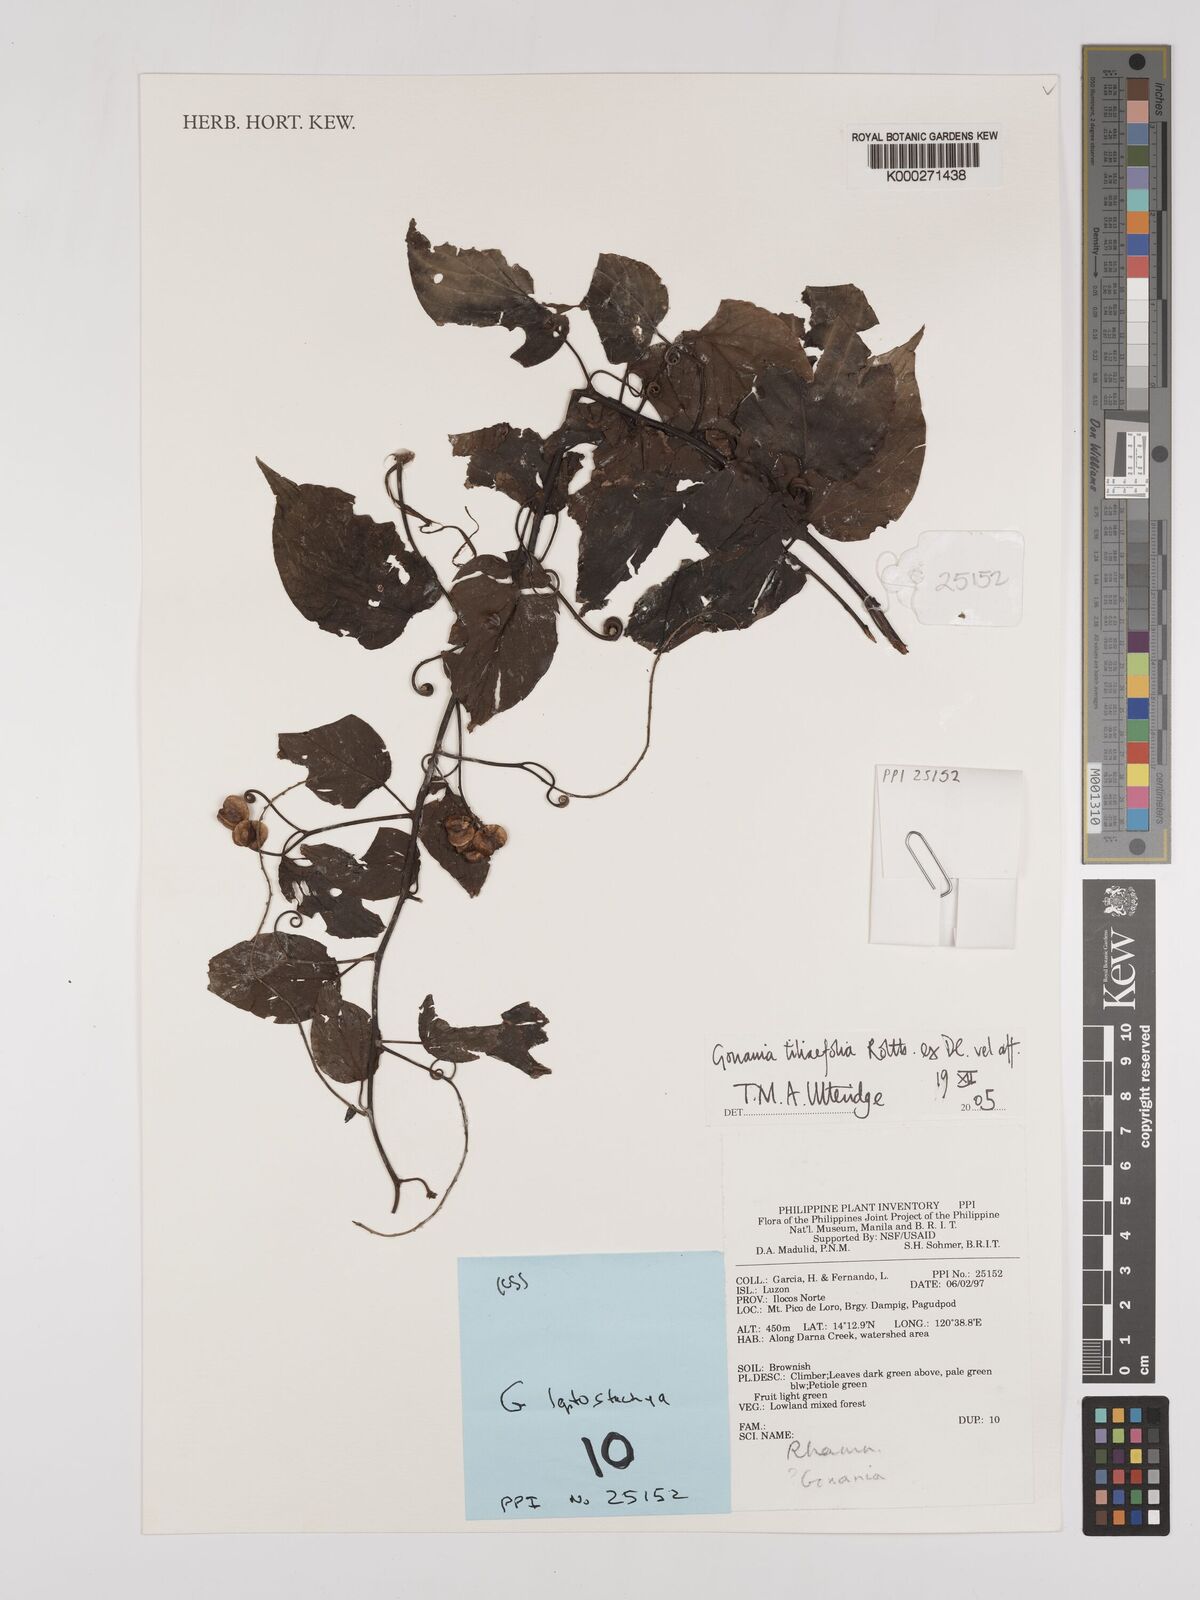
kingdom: Plantae
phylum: Tracheophyta
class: Magnoliopsida
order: Rosales
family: Rhamnaceae
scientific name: Rhamnaceae
